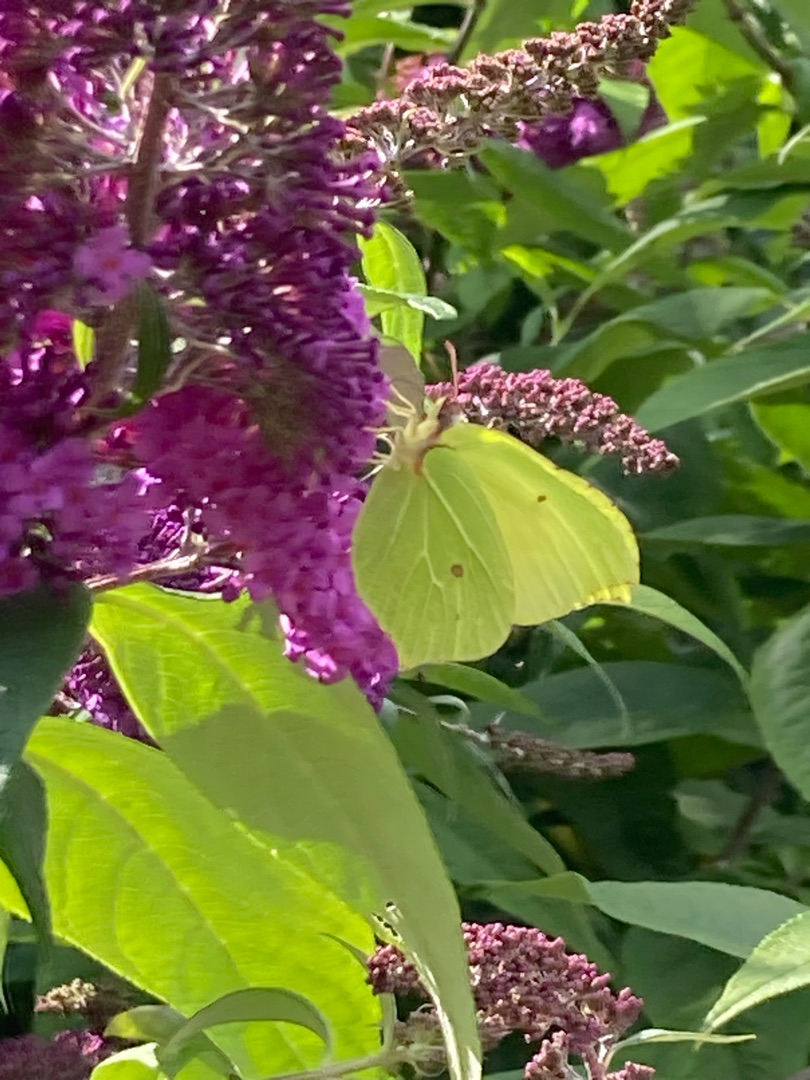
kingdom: Animalia
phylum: Arthropoda
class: Insecta
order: Lepidoptera
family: Pieridae
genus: Gonepteryx
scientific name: Gonepteryx rhamni
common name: Citronsommerfugl
